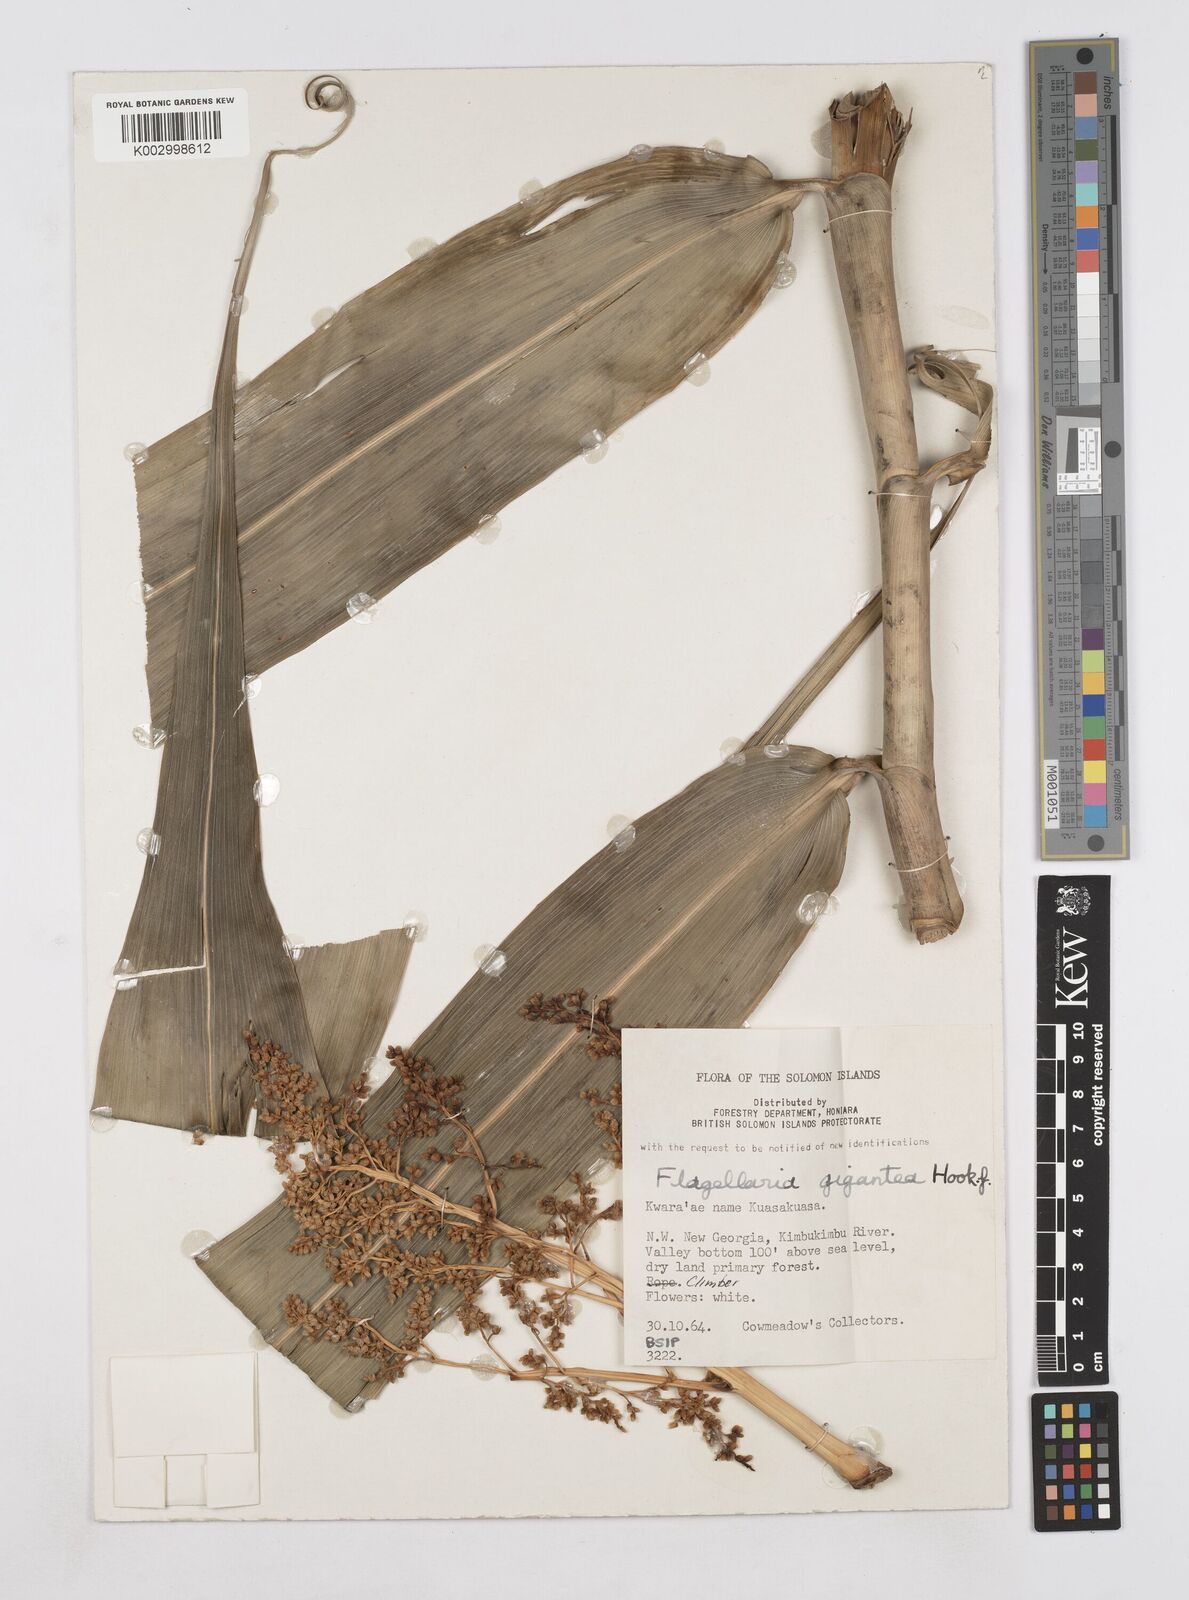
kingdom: Plantae
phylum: Tracheophyta
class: Liliopsida
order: Poales
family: Flagellariaceae
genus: Flagellaria
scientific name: Flagellaria gigantea
